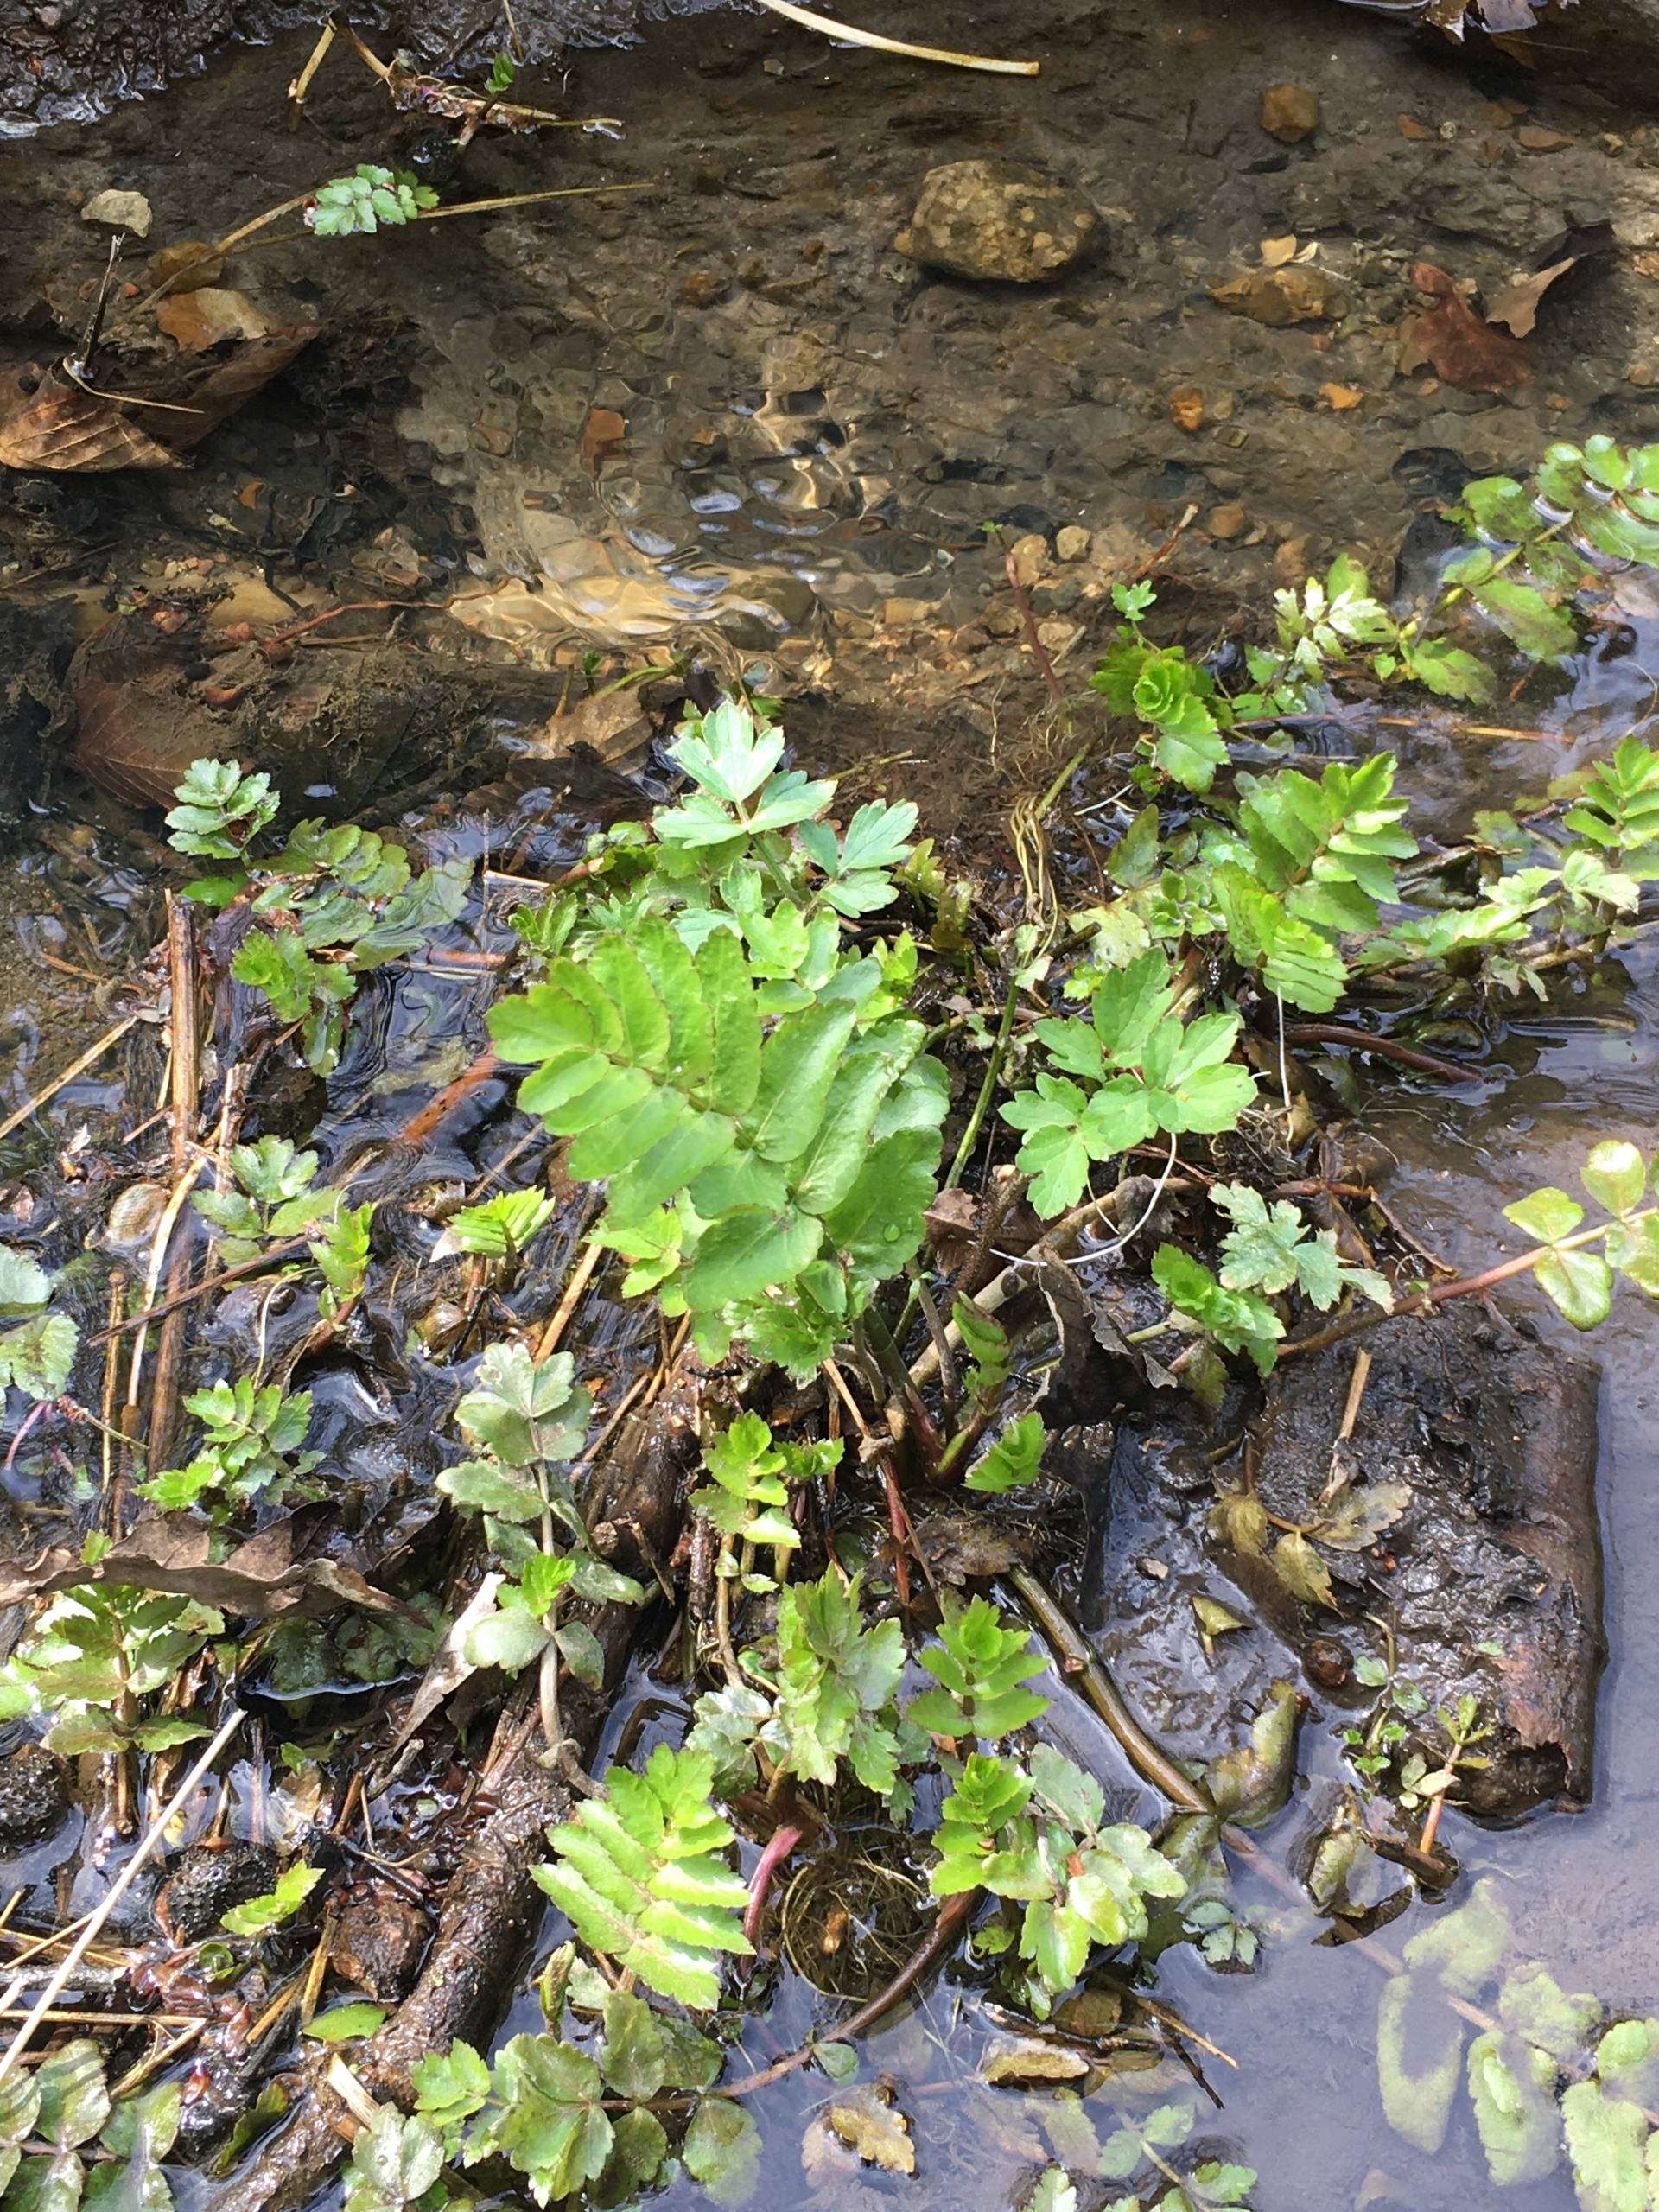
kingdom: Plantae
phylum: Tracheophyta
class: Magnoliopsida
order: Apiales
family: Apiaceae
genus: Berula
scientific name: Berula erecta
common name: Sideskærm
